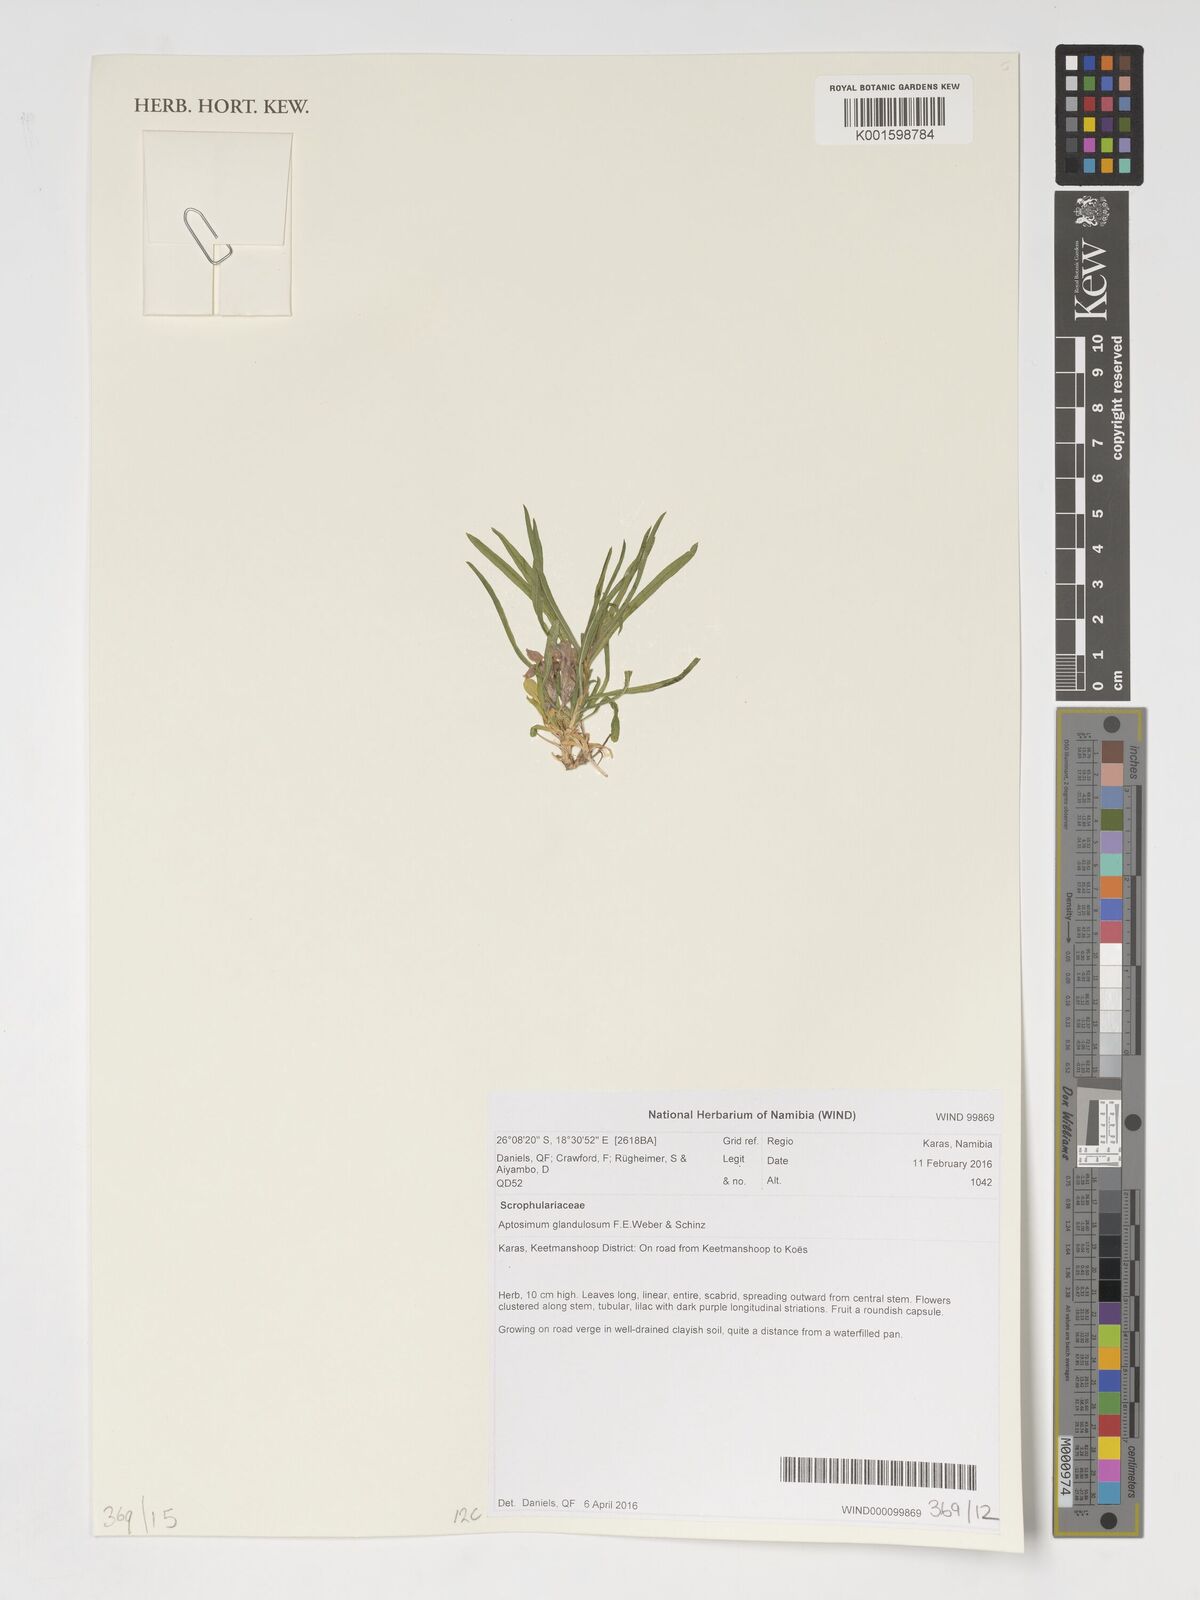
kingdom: Plantae
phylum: Tracheophyta
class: Magnoliopsida
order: Lamiales
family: Scrophulariaceae
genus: Aptosimum
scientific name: Aptosimum glandulosum
